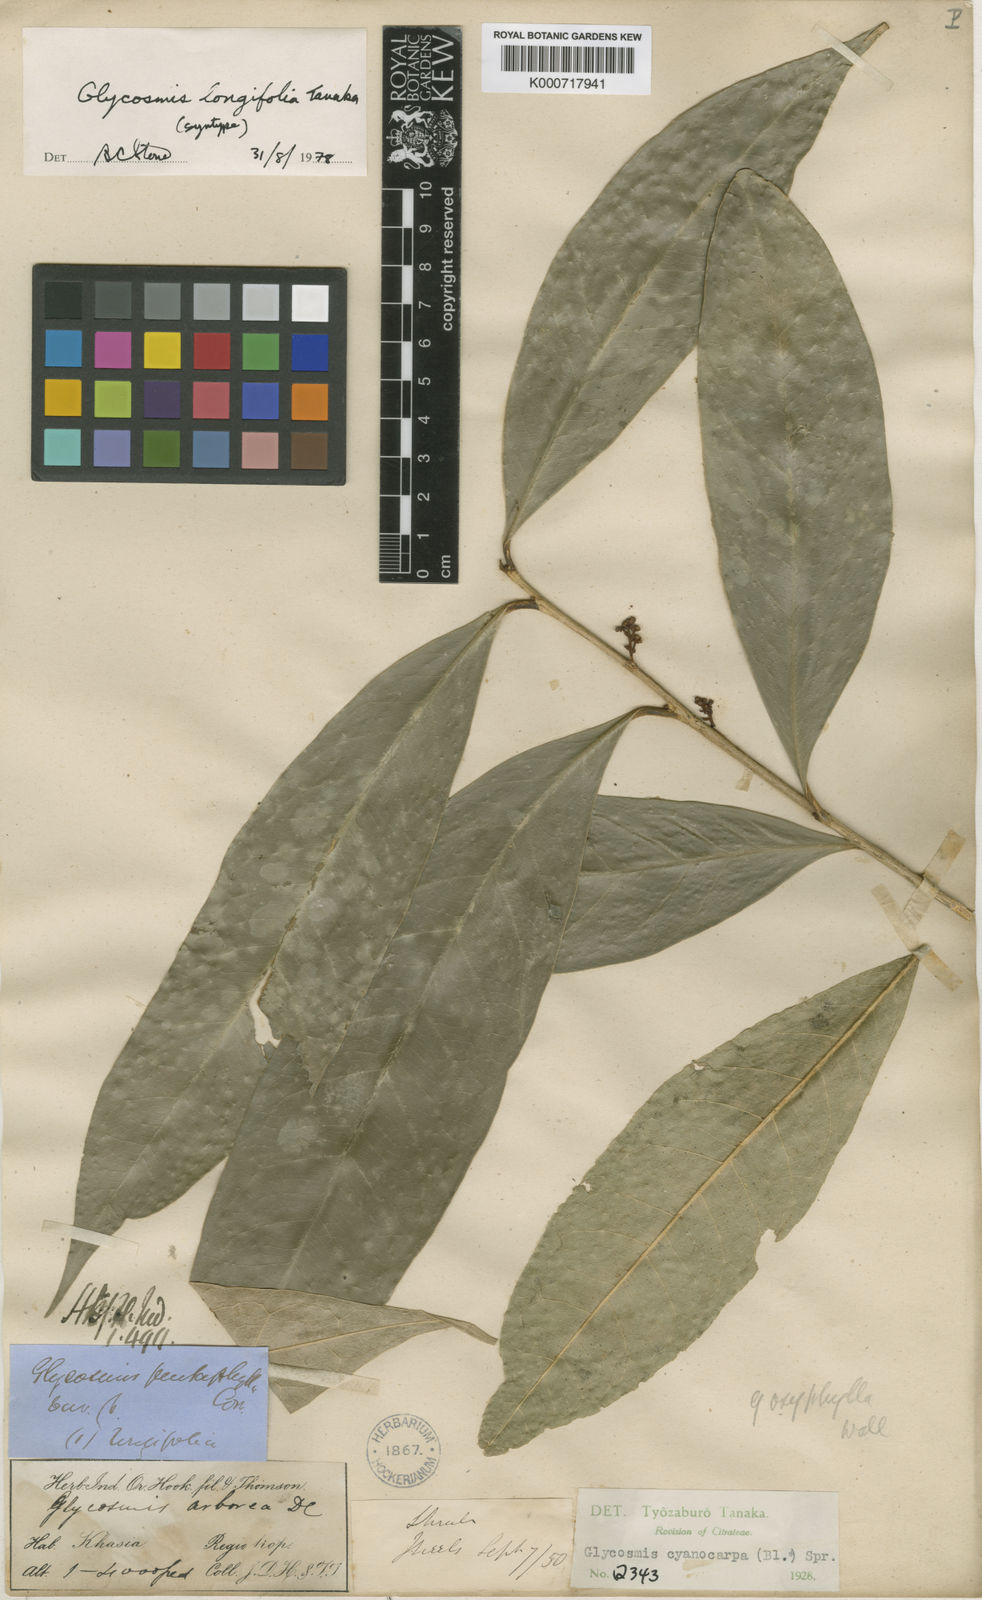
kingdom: Plantae
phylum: Tracheophyta
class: Magnoliopsida
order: Sapindales
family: Rutaceae
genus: Glycosmis
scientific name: Glycosmis cyanocarpa
